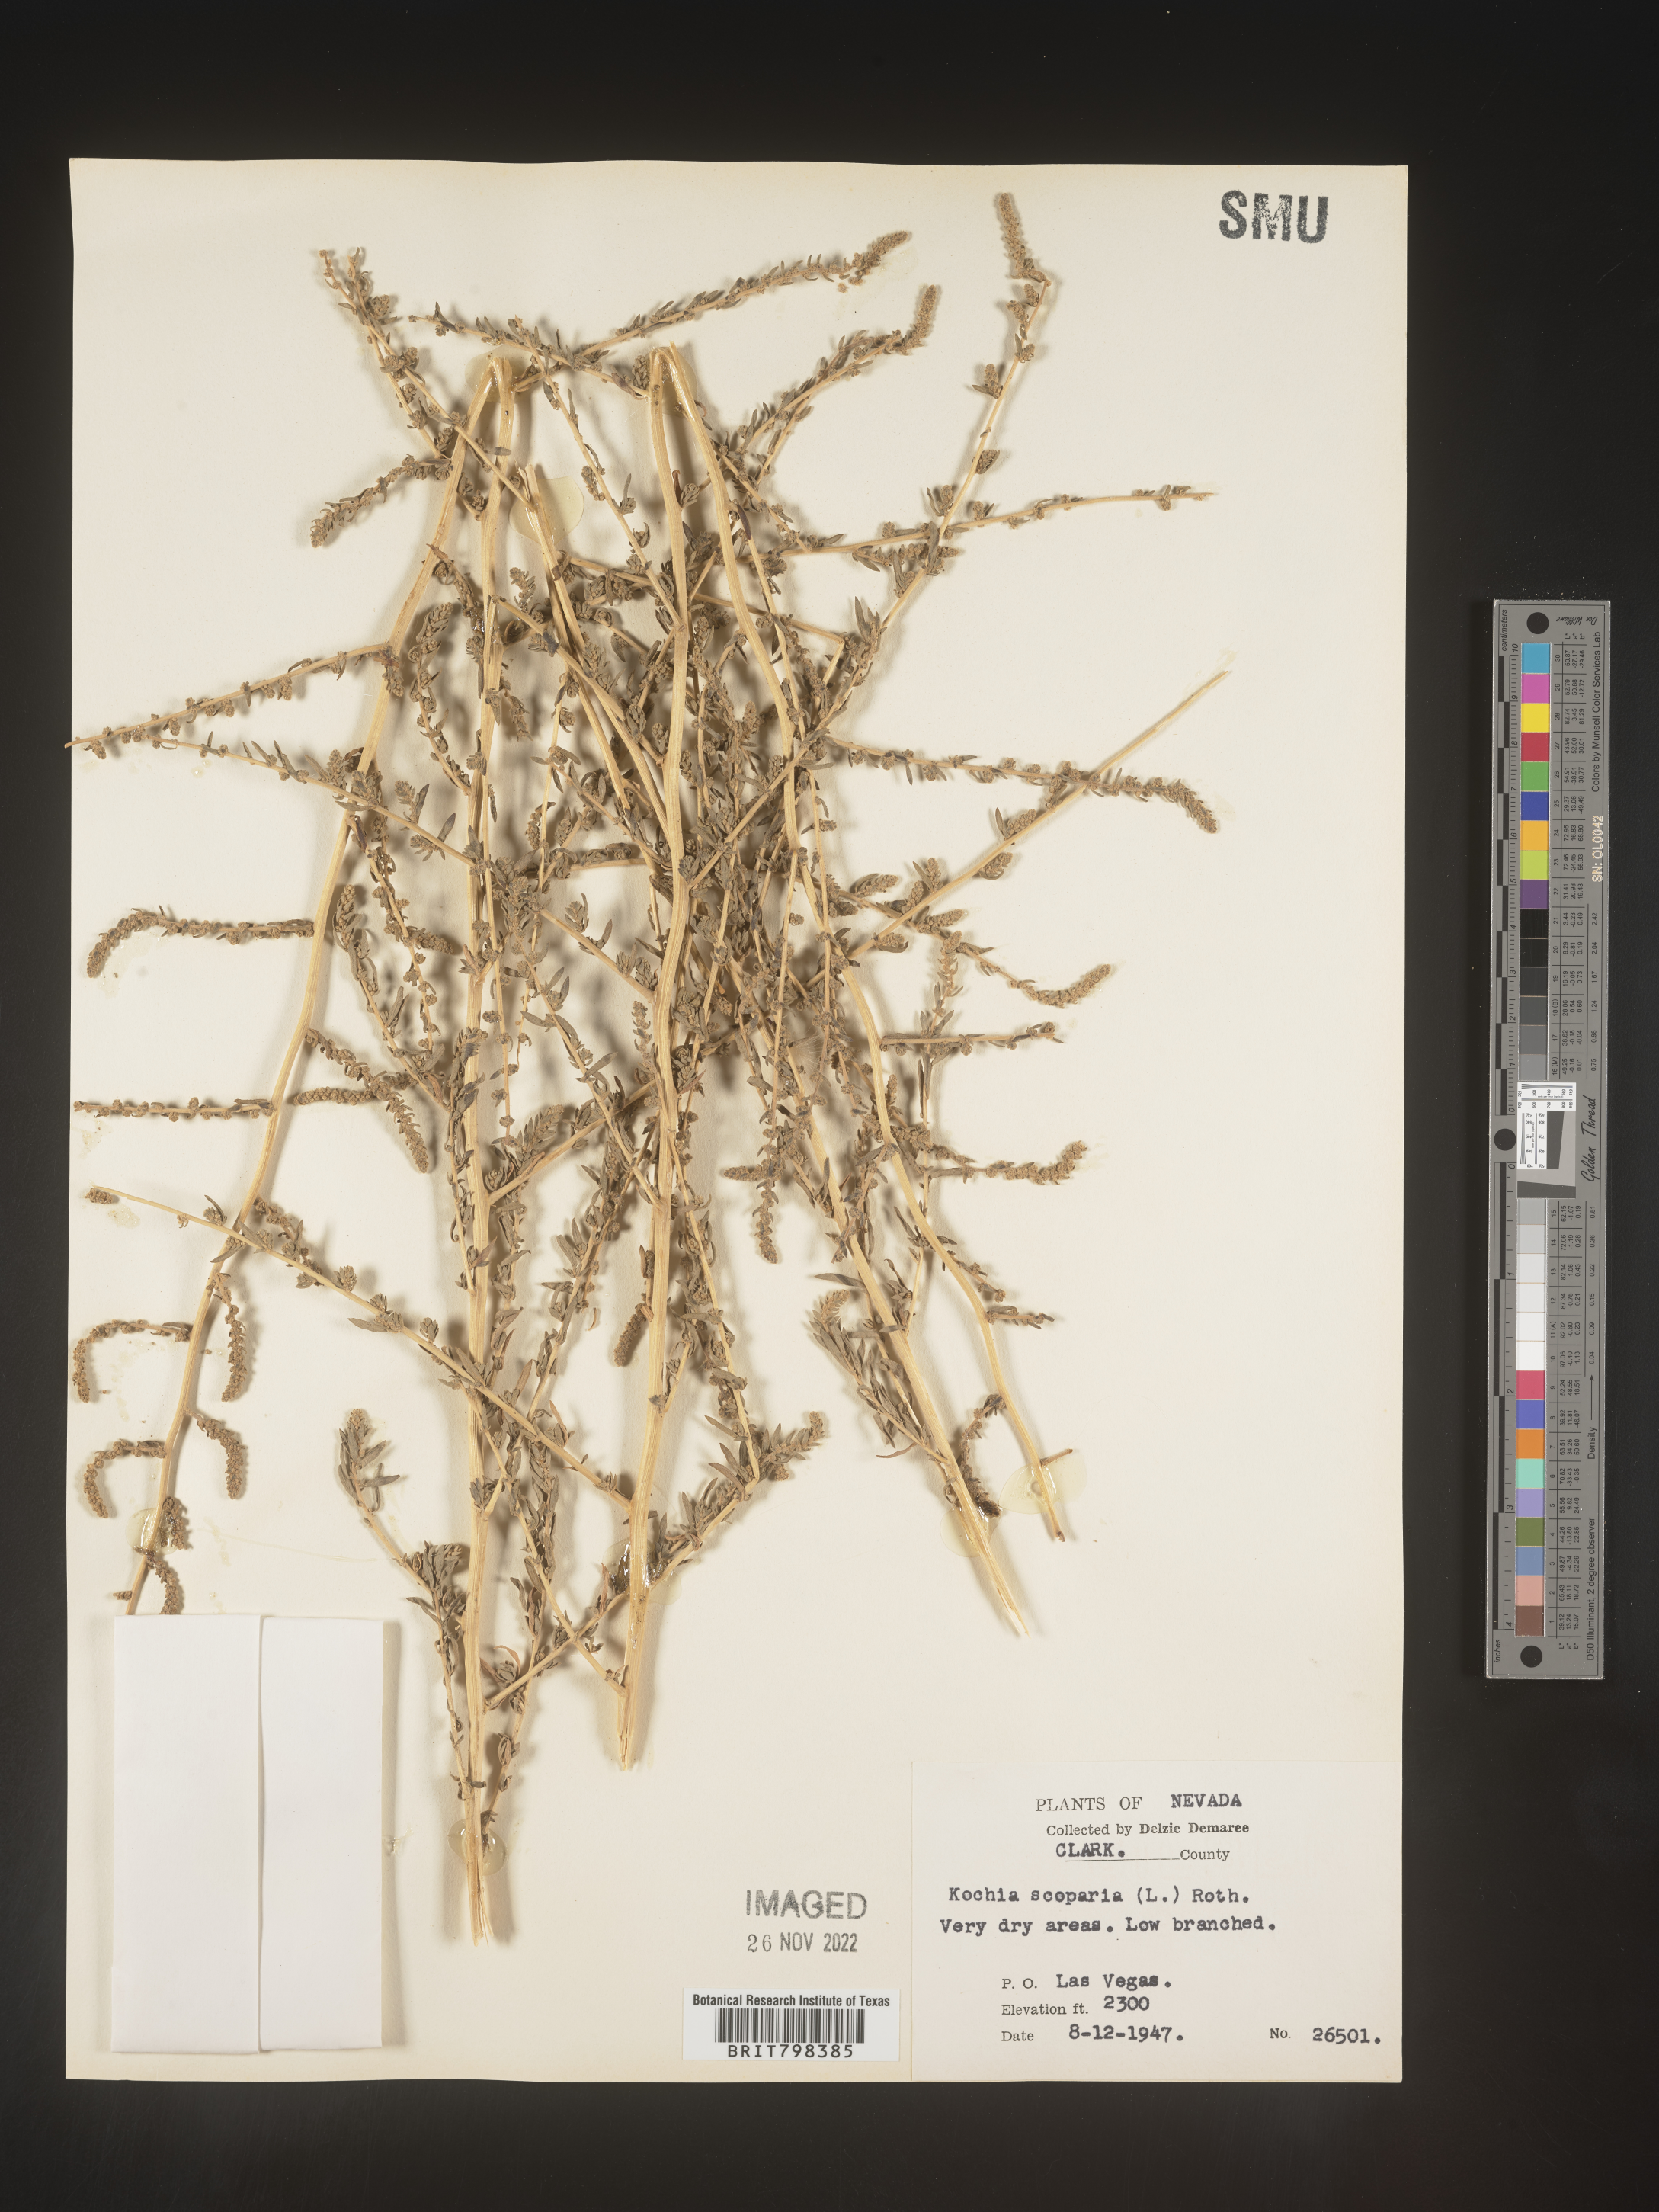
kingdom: Plantae
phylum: Tracheophyta
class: Magnoliopsida
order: Caryophyllales
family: Amaranthaceae
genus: Bassia
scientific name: Bassia scoparia
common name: Belvedere
